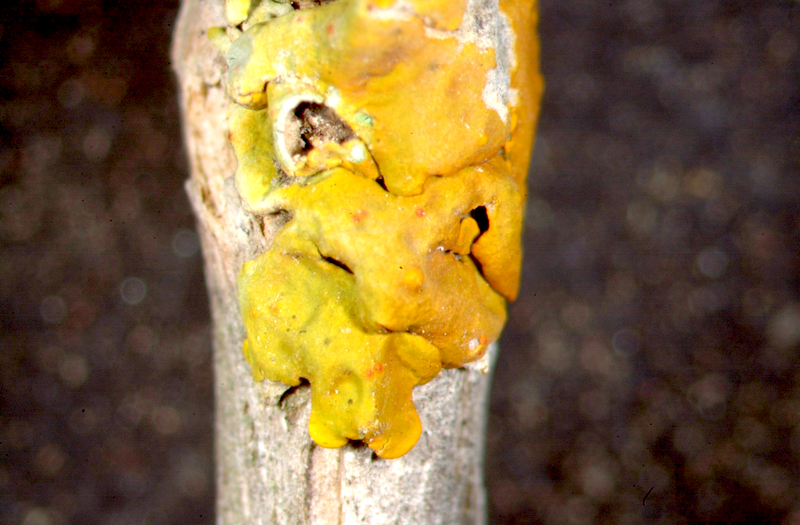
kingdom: Fungi
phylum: Ascomycota
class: Lecanoromycetes
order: Teloschistales
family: Teloschistaceae
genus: Xanthoria
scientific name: Xanthoria parietina
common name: Common orange lichen
